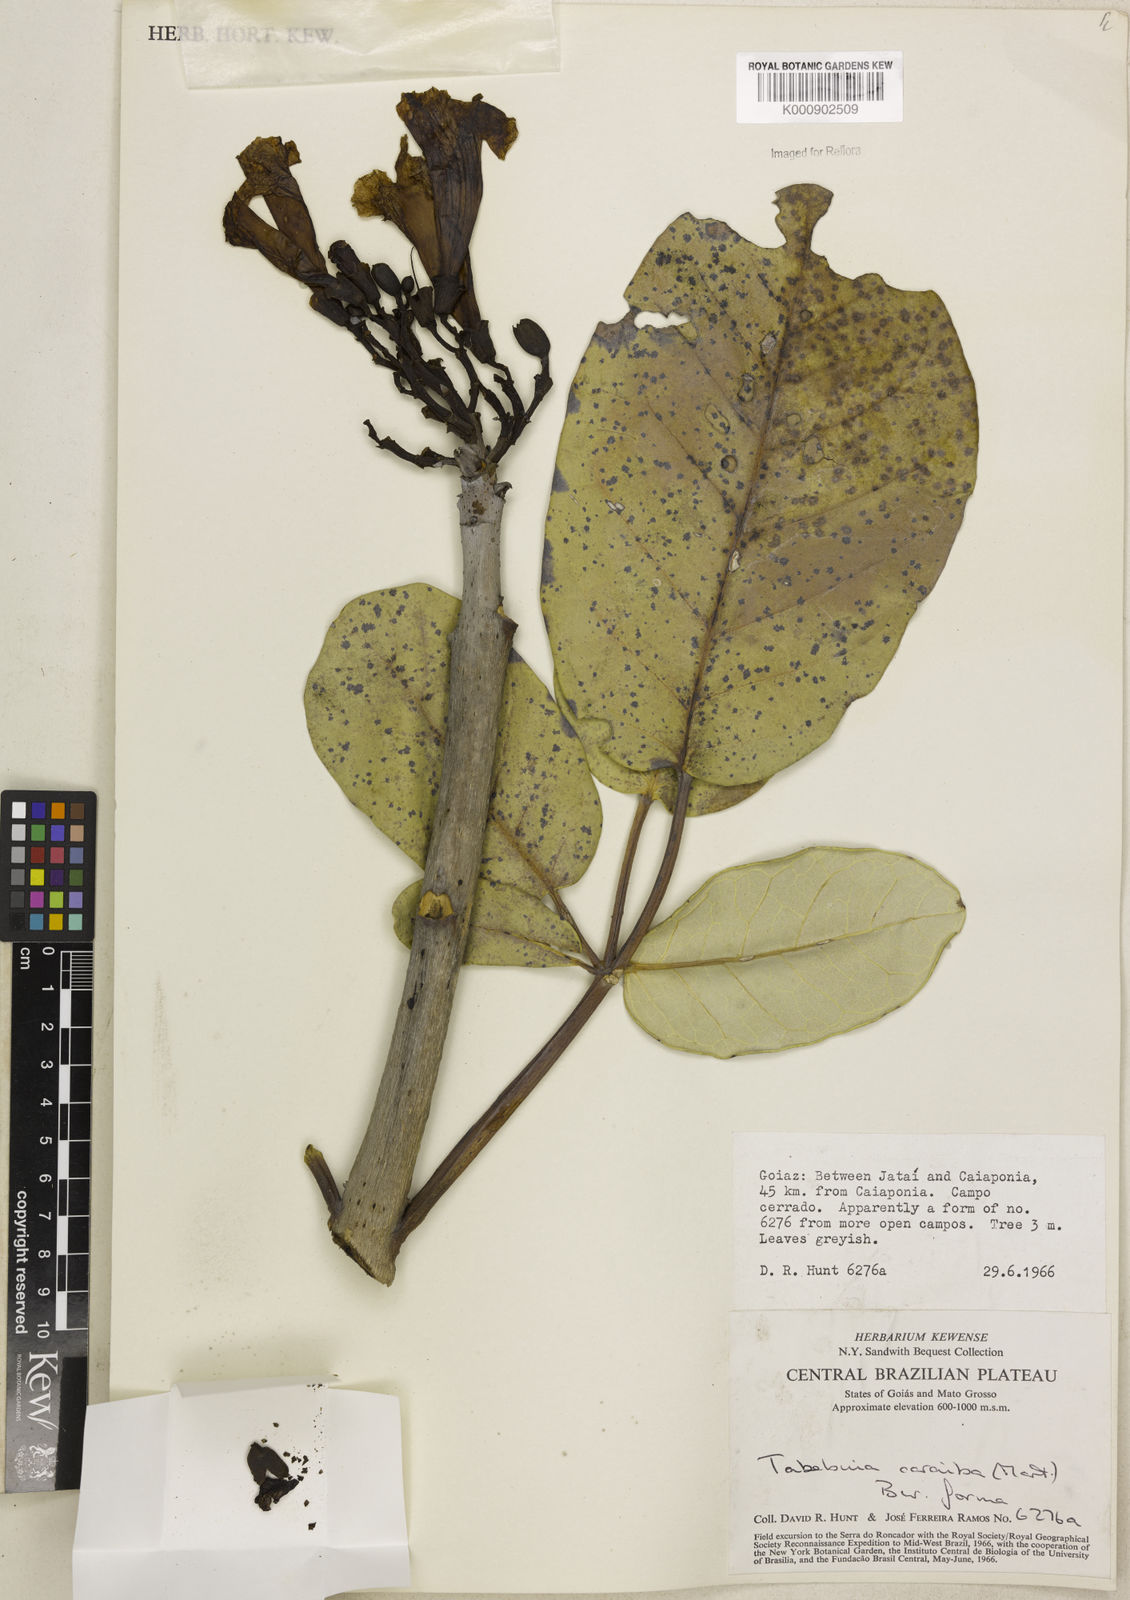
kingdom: Plantae
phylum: Tracheophyta
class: Magnoliopsida
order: Lamiales
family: Bignoniaceae
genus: Tabebuia
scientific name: Tabebuia aurea
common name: Caribbean trumpet-tree
